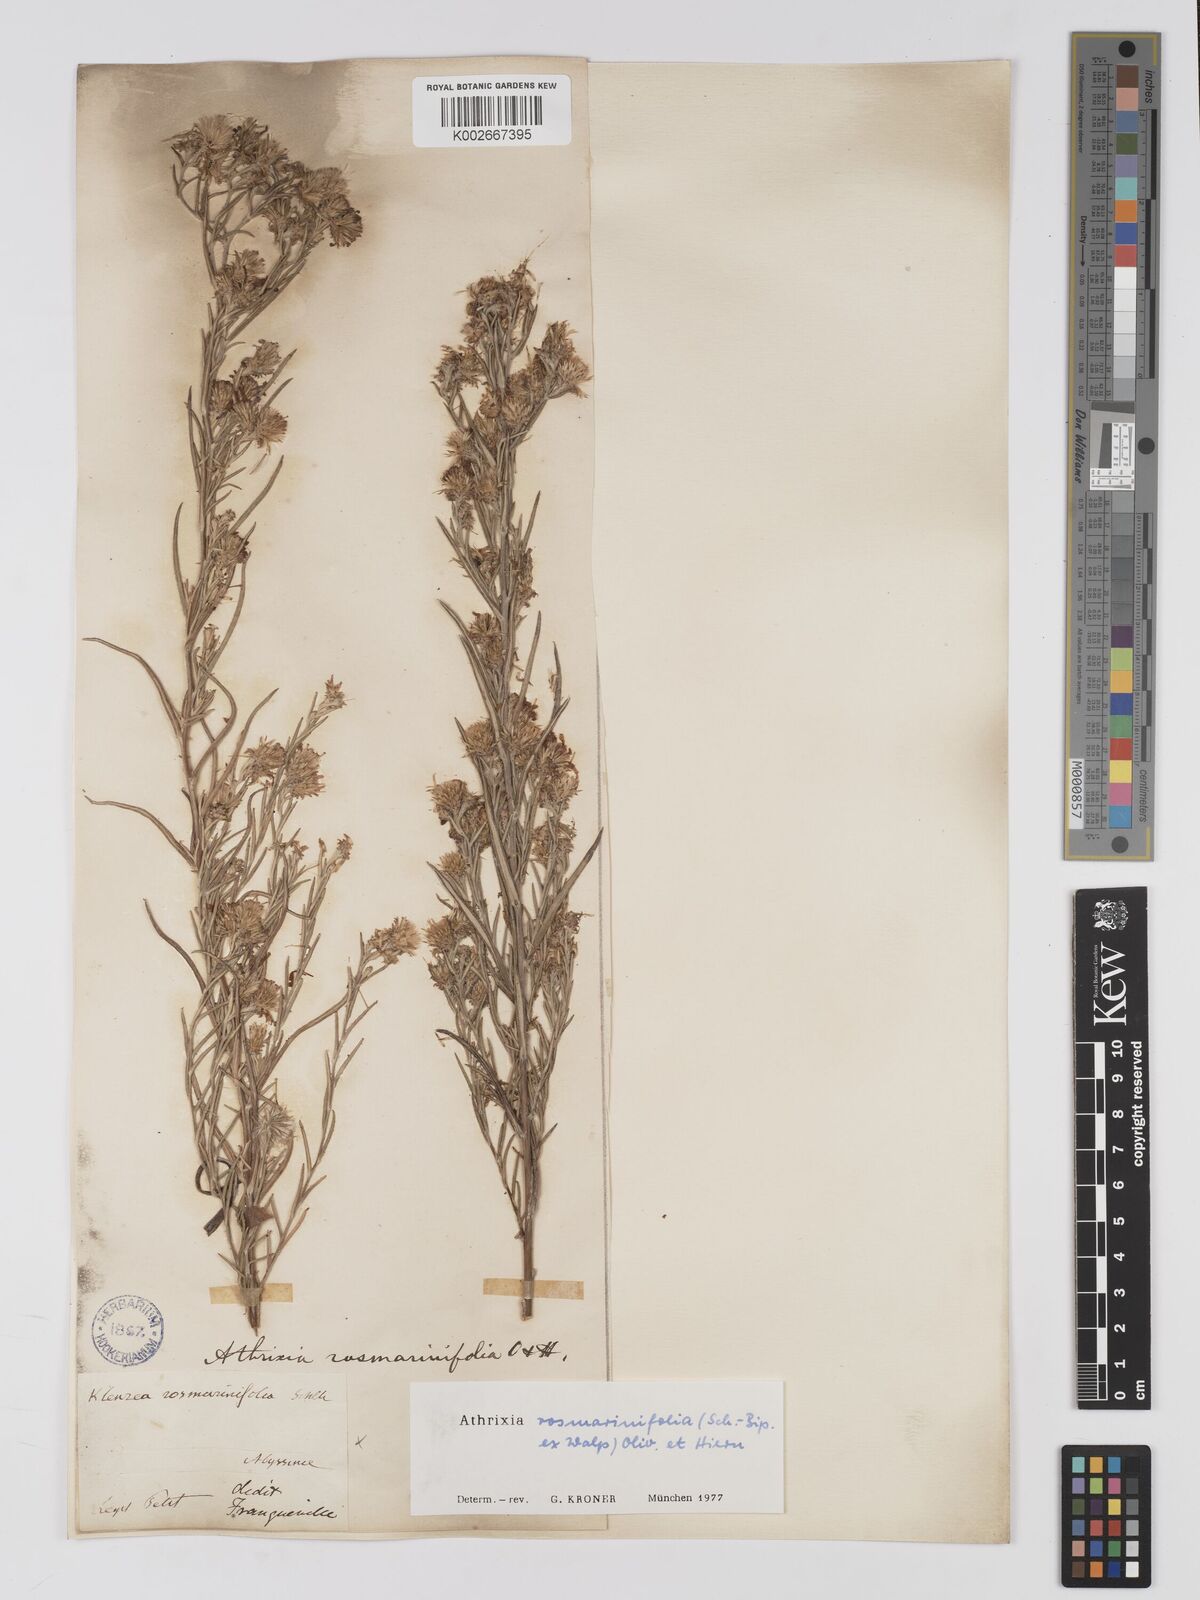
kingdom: Plantae
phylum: Tracheophyta
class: Magnoliopsida
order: Asterales
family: Asteraceae
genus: Athrixia
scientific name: Athrixia rosmarinifolia
